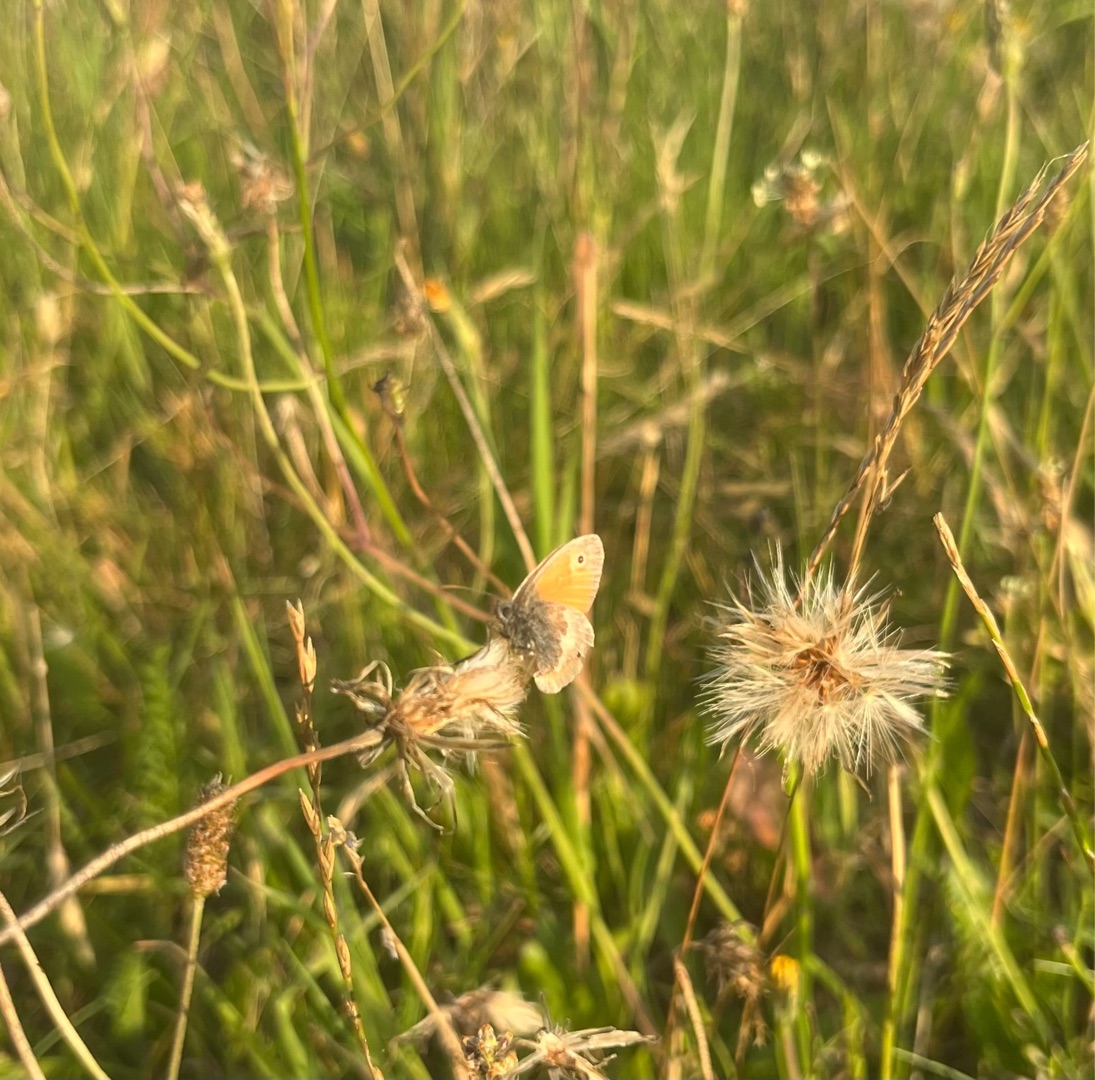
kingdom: Animalia
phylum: Arthropoda
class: Insecta
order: Lepidoptera
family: Nymphalidae
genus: Coenonympha
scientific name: Coenonympha pamphilus
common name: Okkergul randøje
